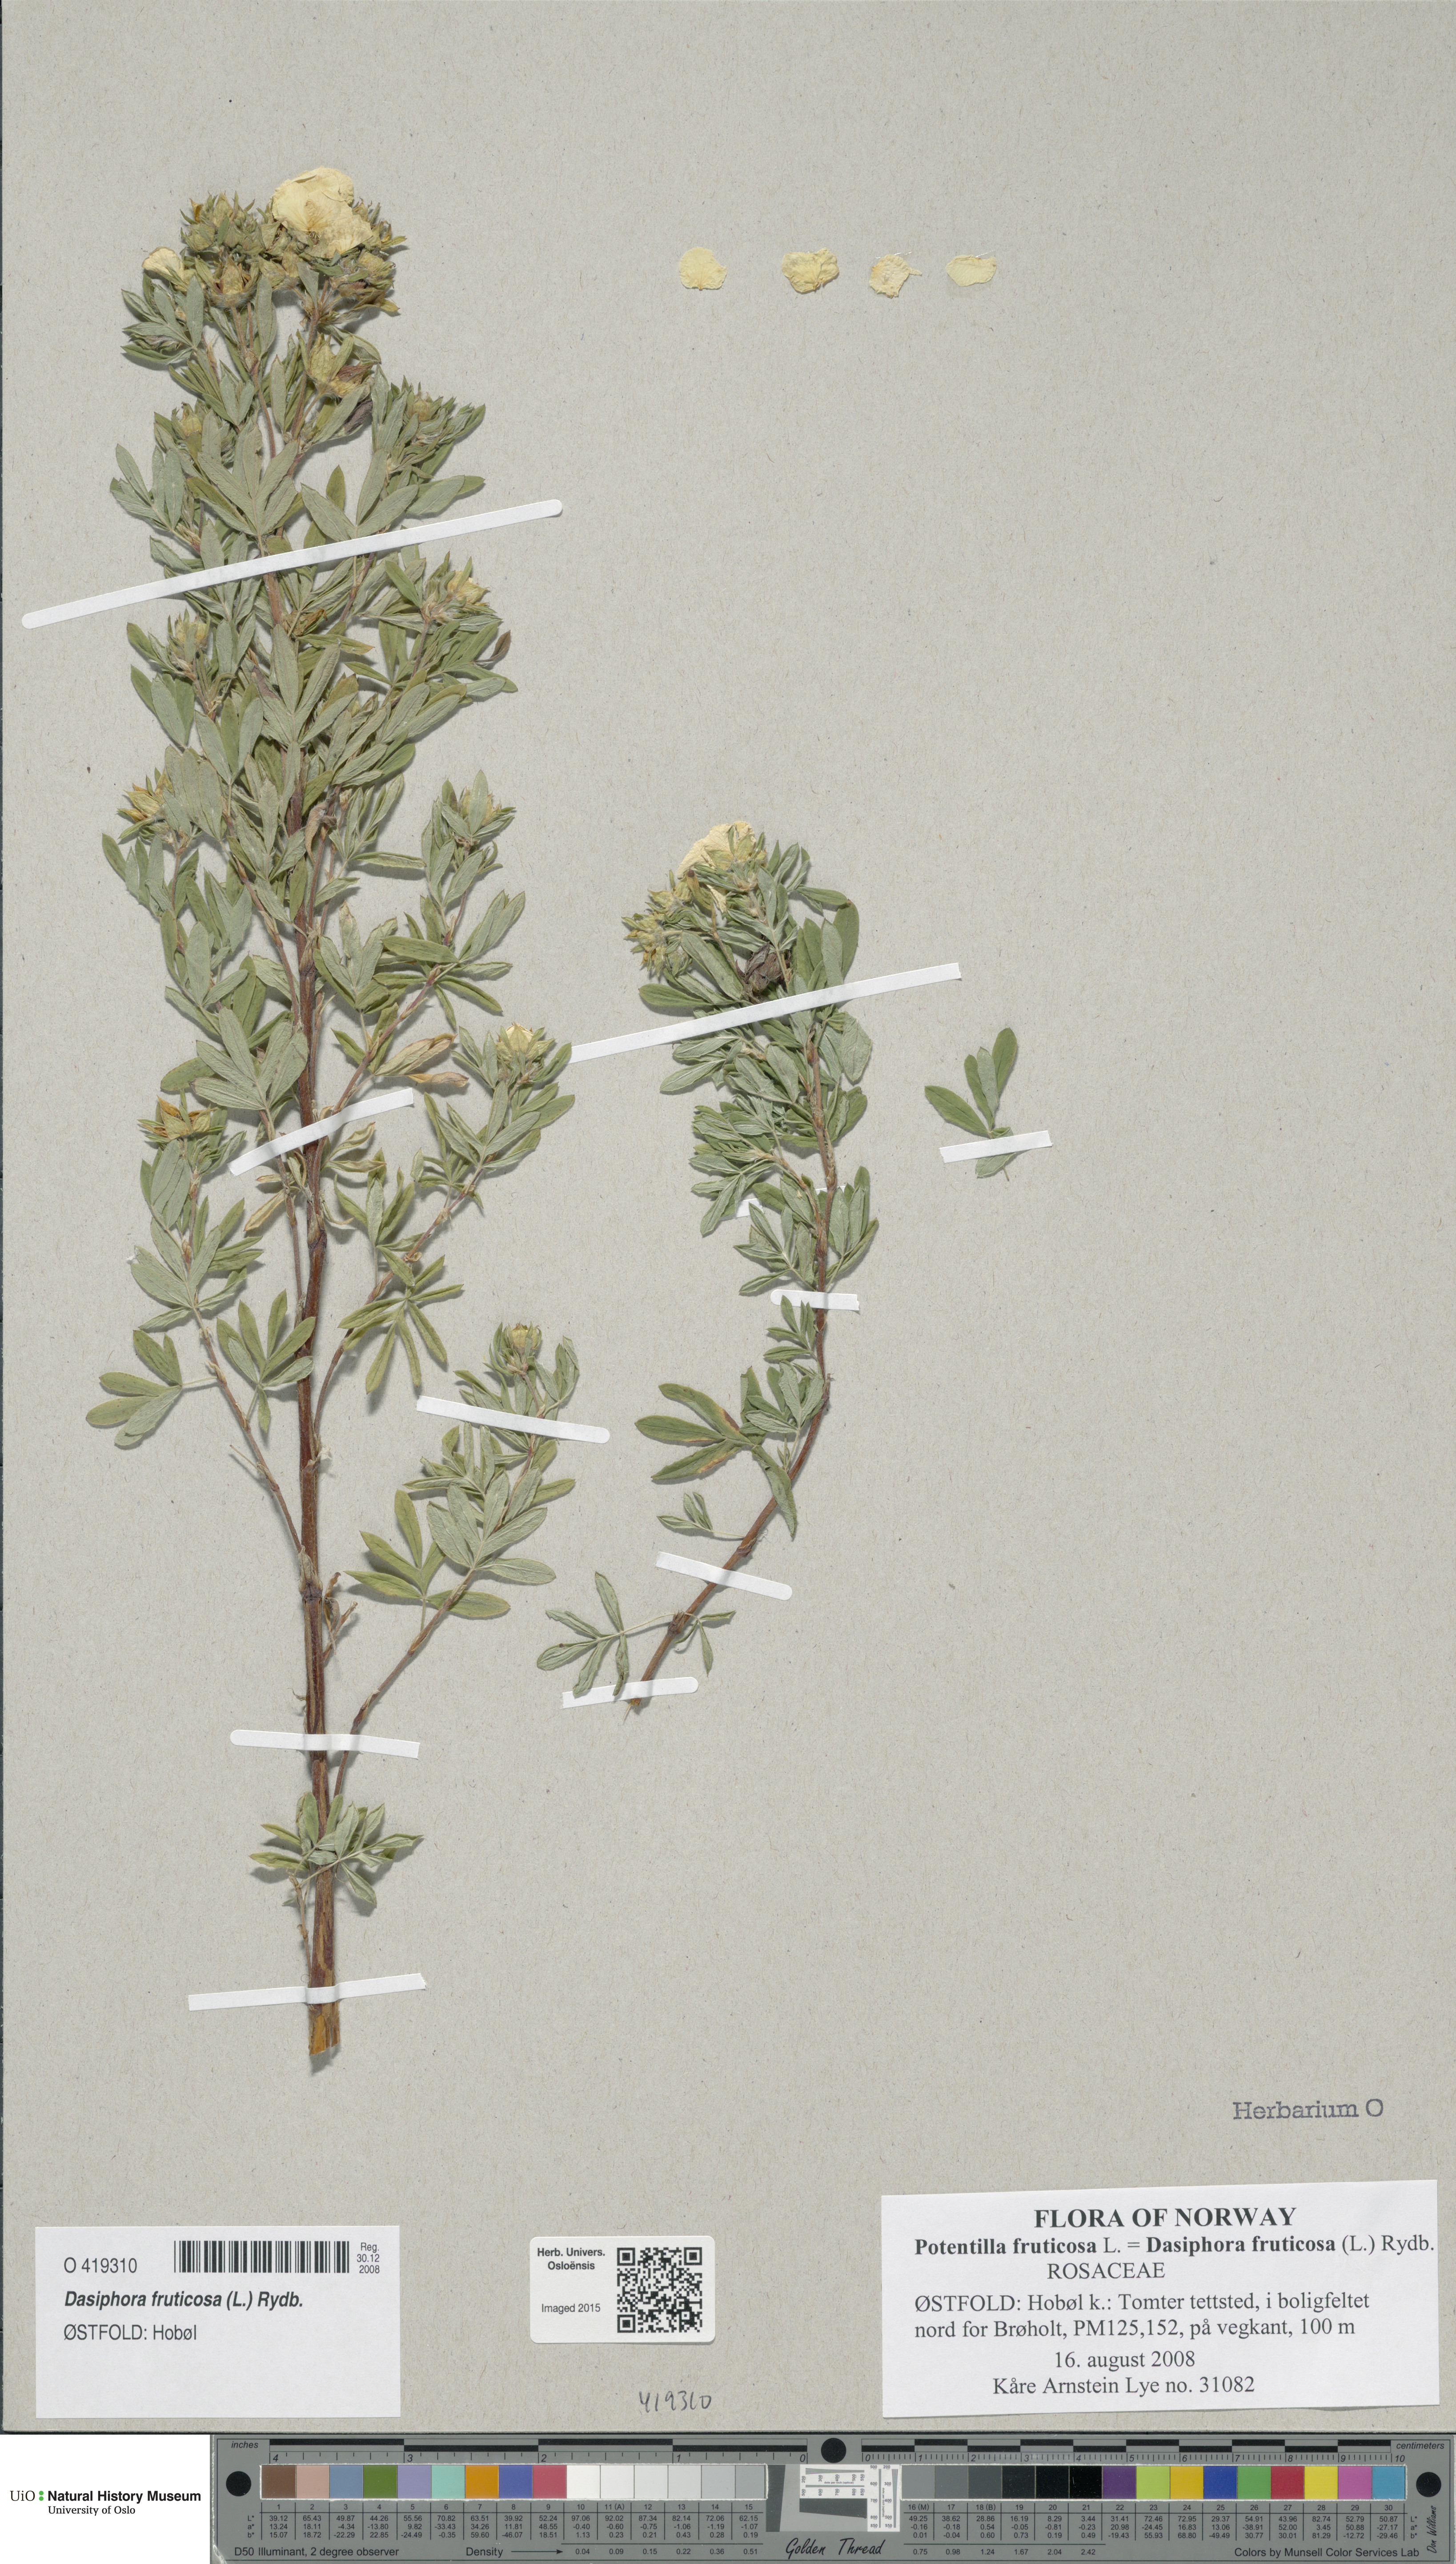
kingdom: Plantae
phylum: Tracheophyta
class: Magnoliopsida
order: Rosales
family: Rosaceae
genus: Dasiphora
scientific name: Dasiphora fruticosa
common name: Shrubby cinquefoil
